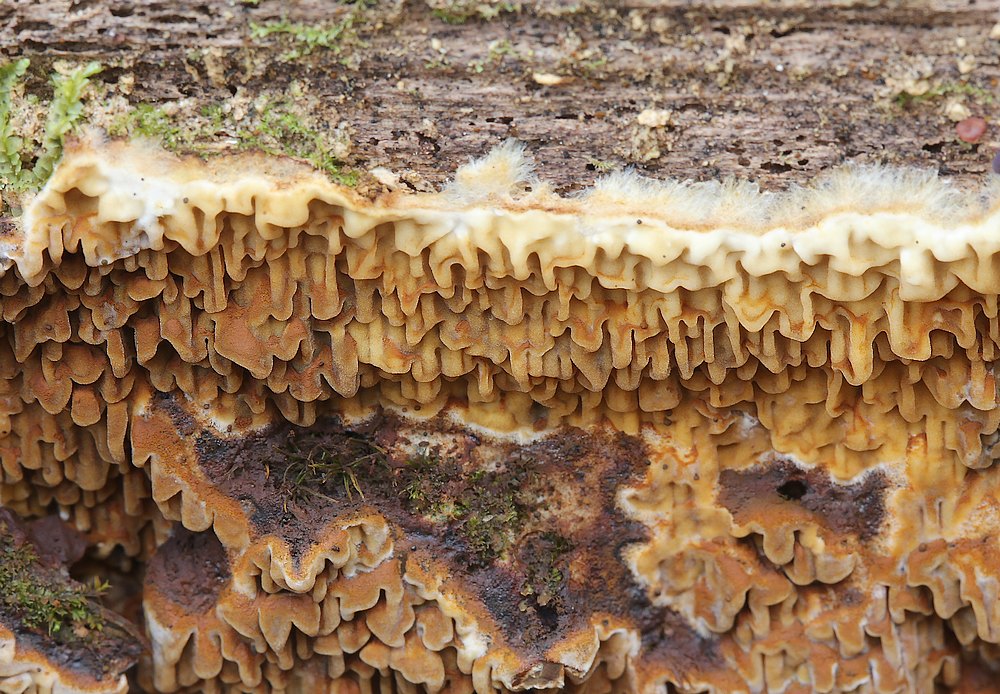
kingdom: Fungi
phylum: Basidiomycota
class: Agaricomycetes
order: Boletales
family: Serpulaceae
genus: Serpula
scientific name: Serpula himantioides
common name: tyndkødet hussvamp
